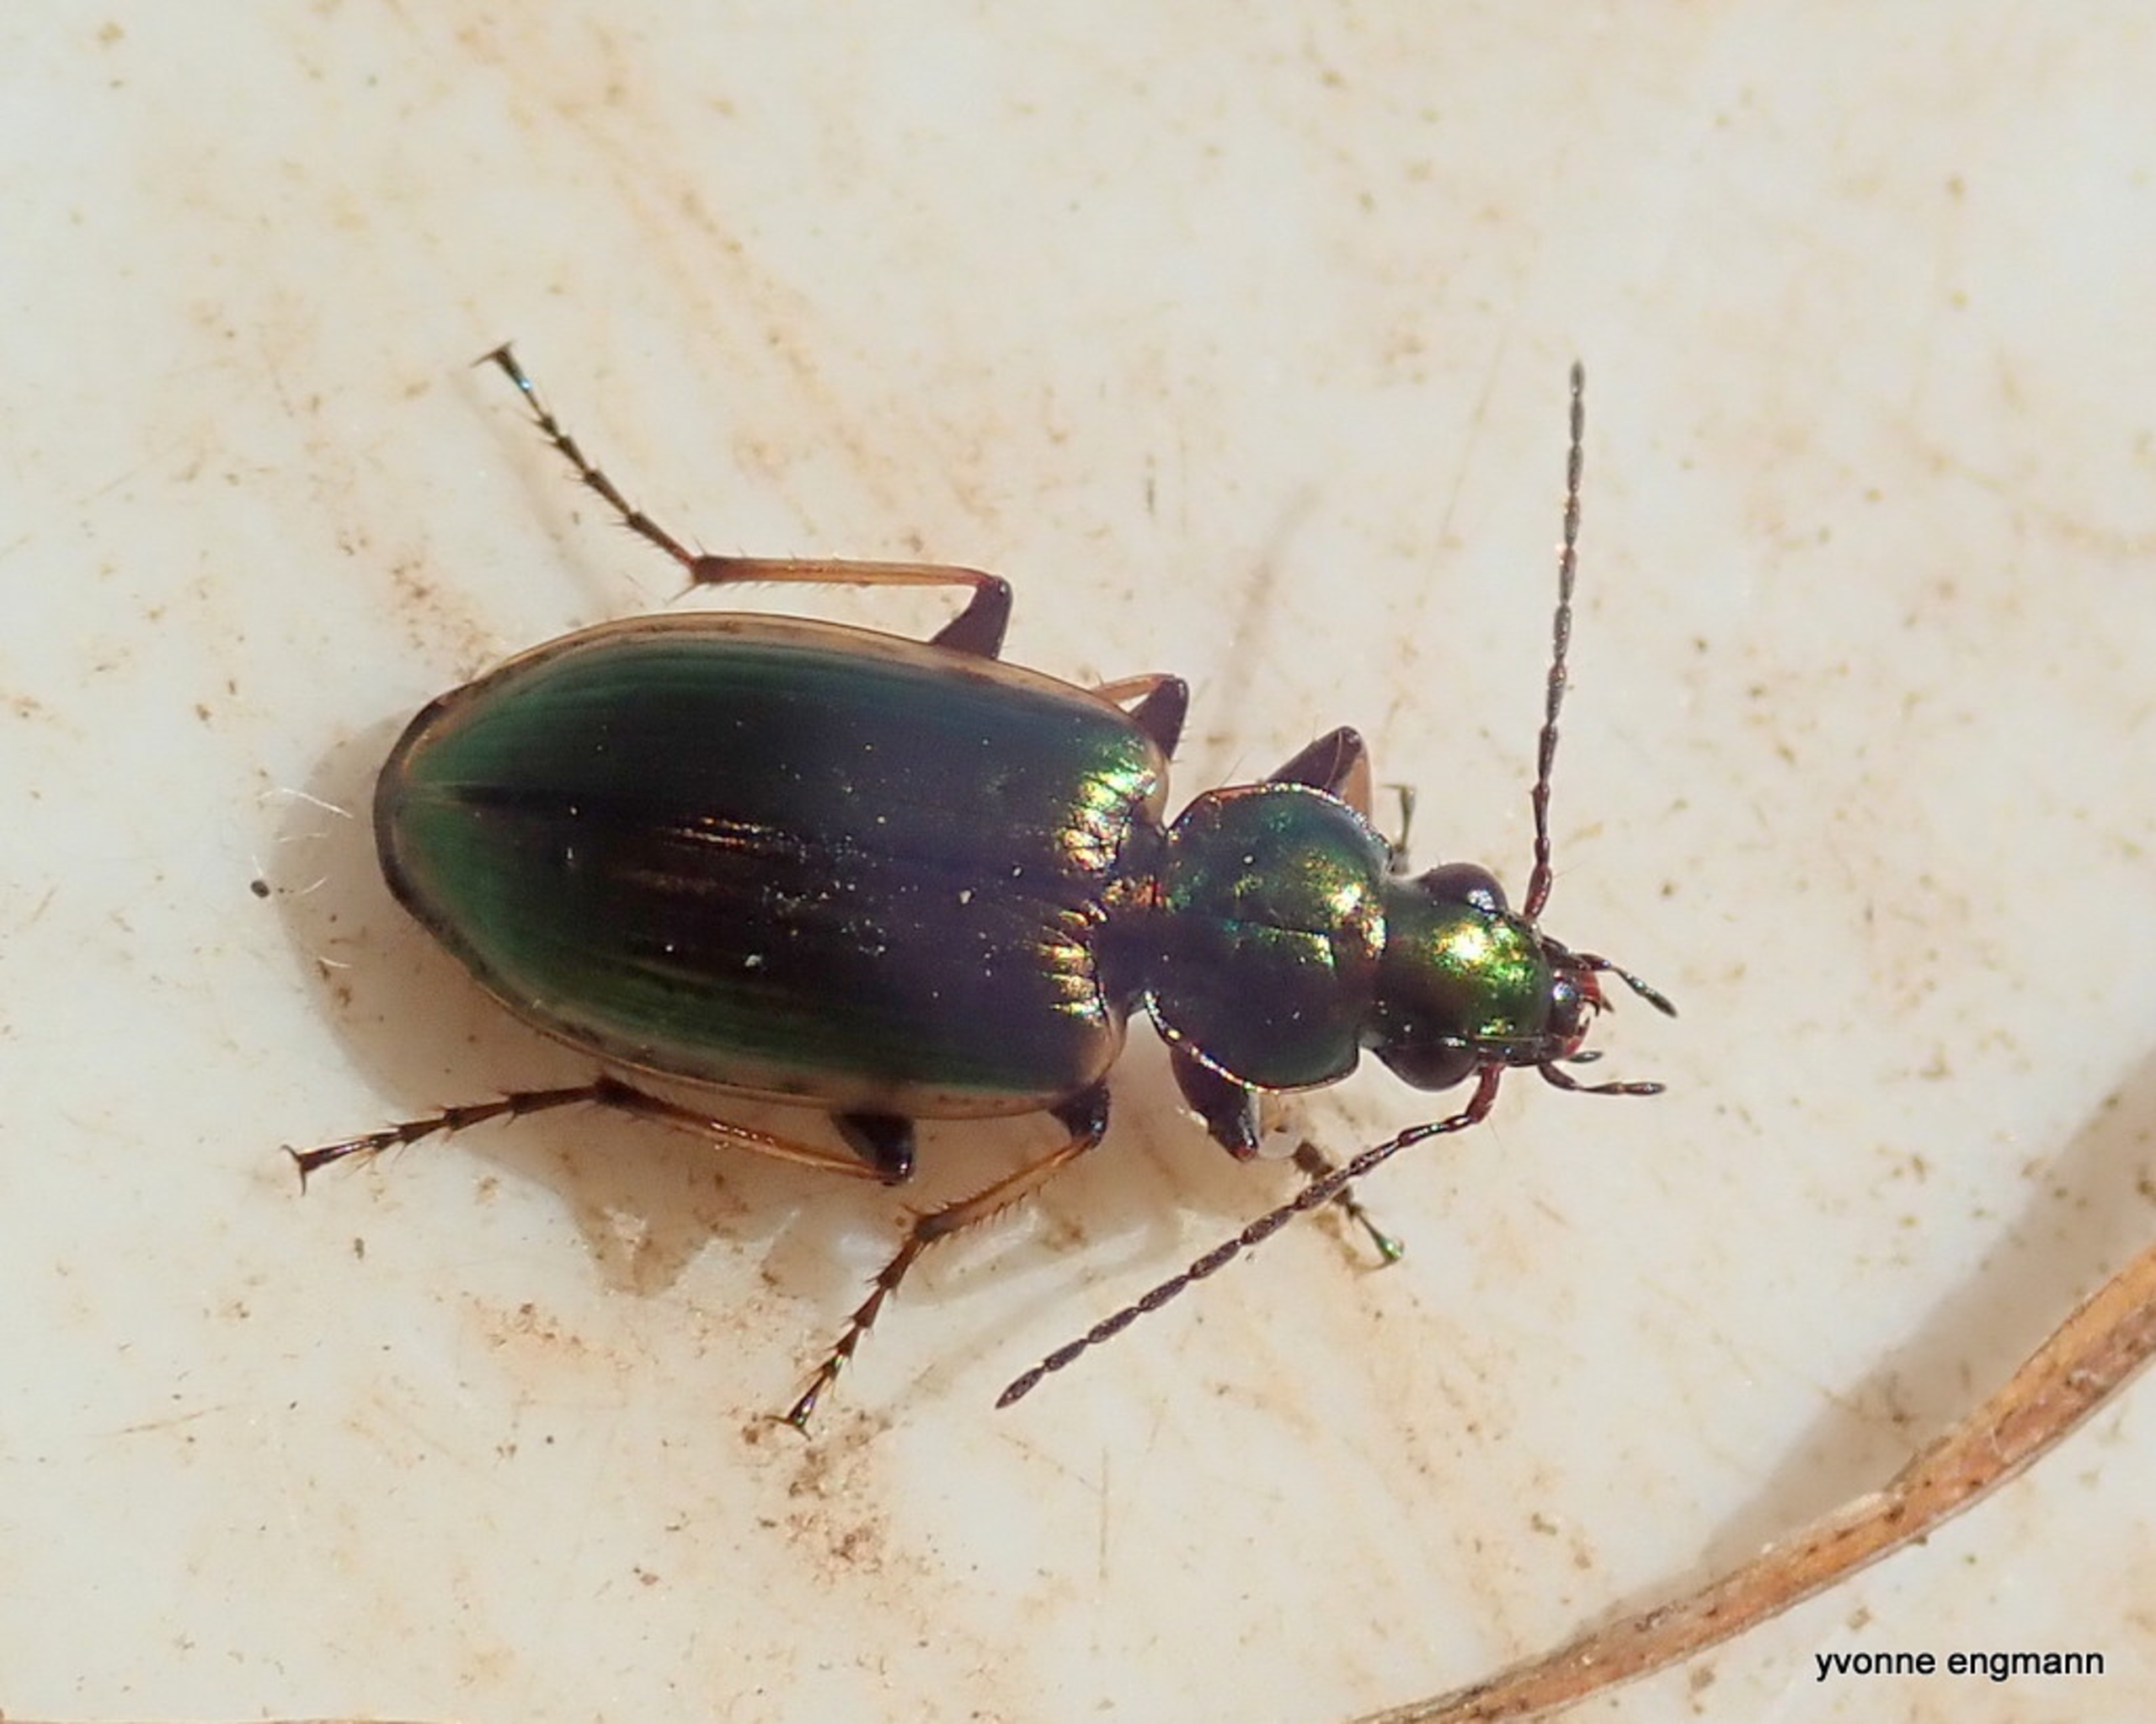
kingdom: Animalia
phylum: Arthropoda
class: Insecta
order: Coleoptera
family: Carabidae
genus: Agonum
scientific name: Agonum marginatum
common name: Gulrandet kvikløber
